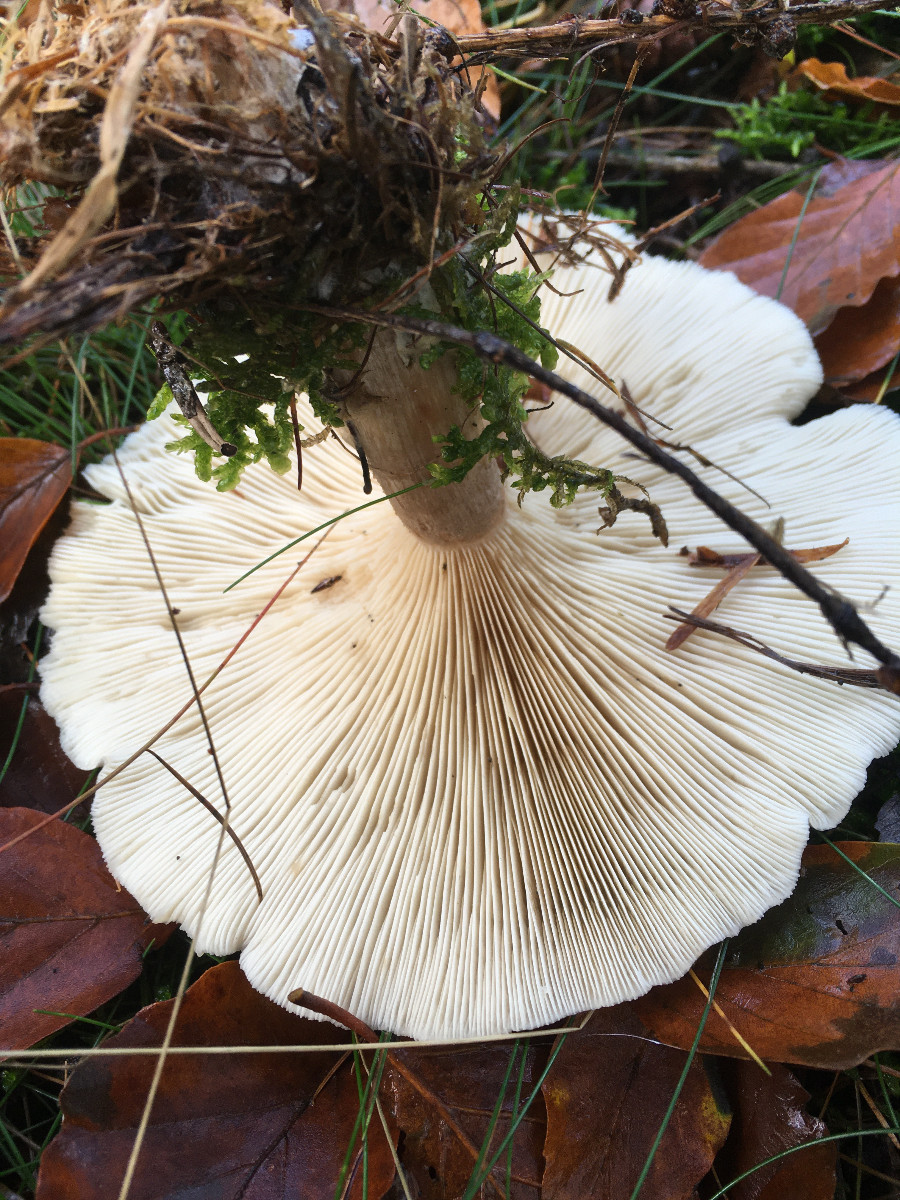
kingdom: Fungi
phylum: Basidiomycota
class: Agaricomycetes
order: Agaricales
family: Tricholomataceae
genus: Clitocybe
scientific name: Clitocybe nebularis
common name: tåge-tragthat
